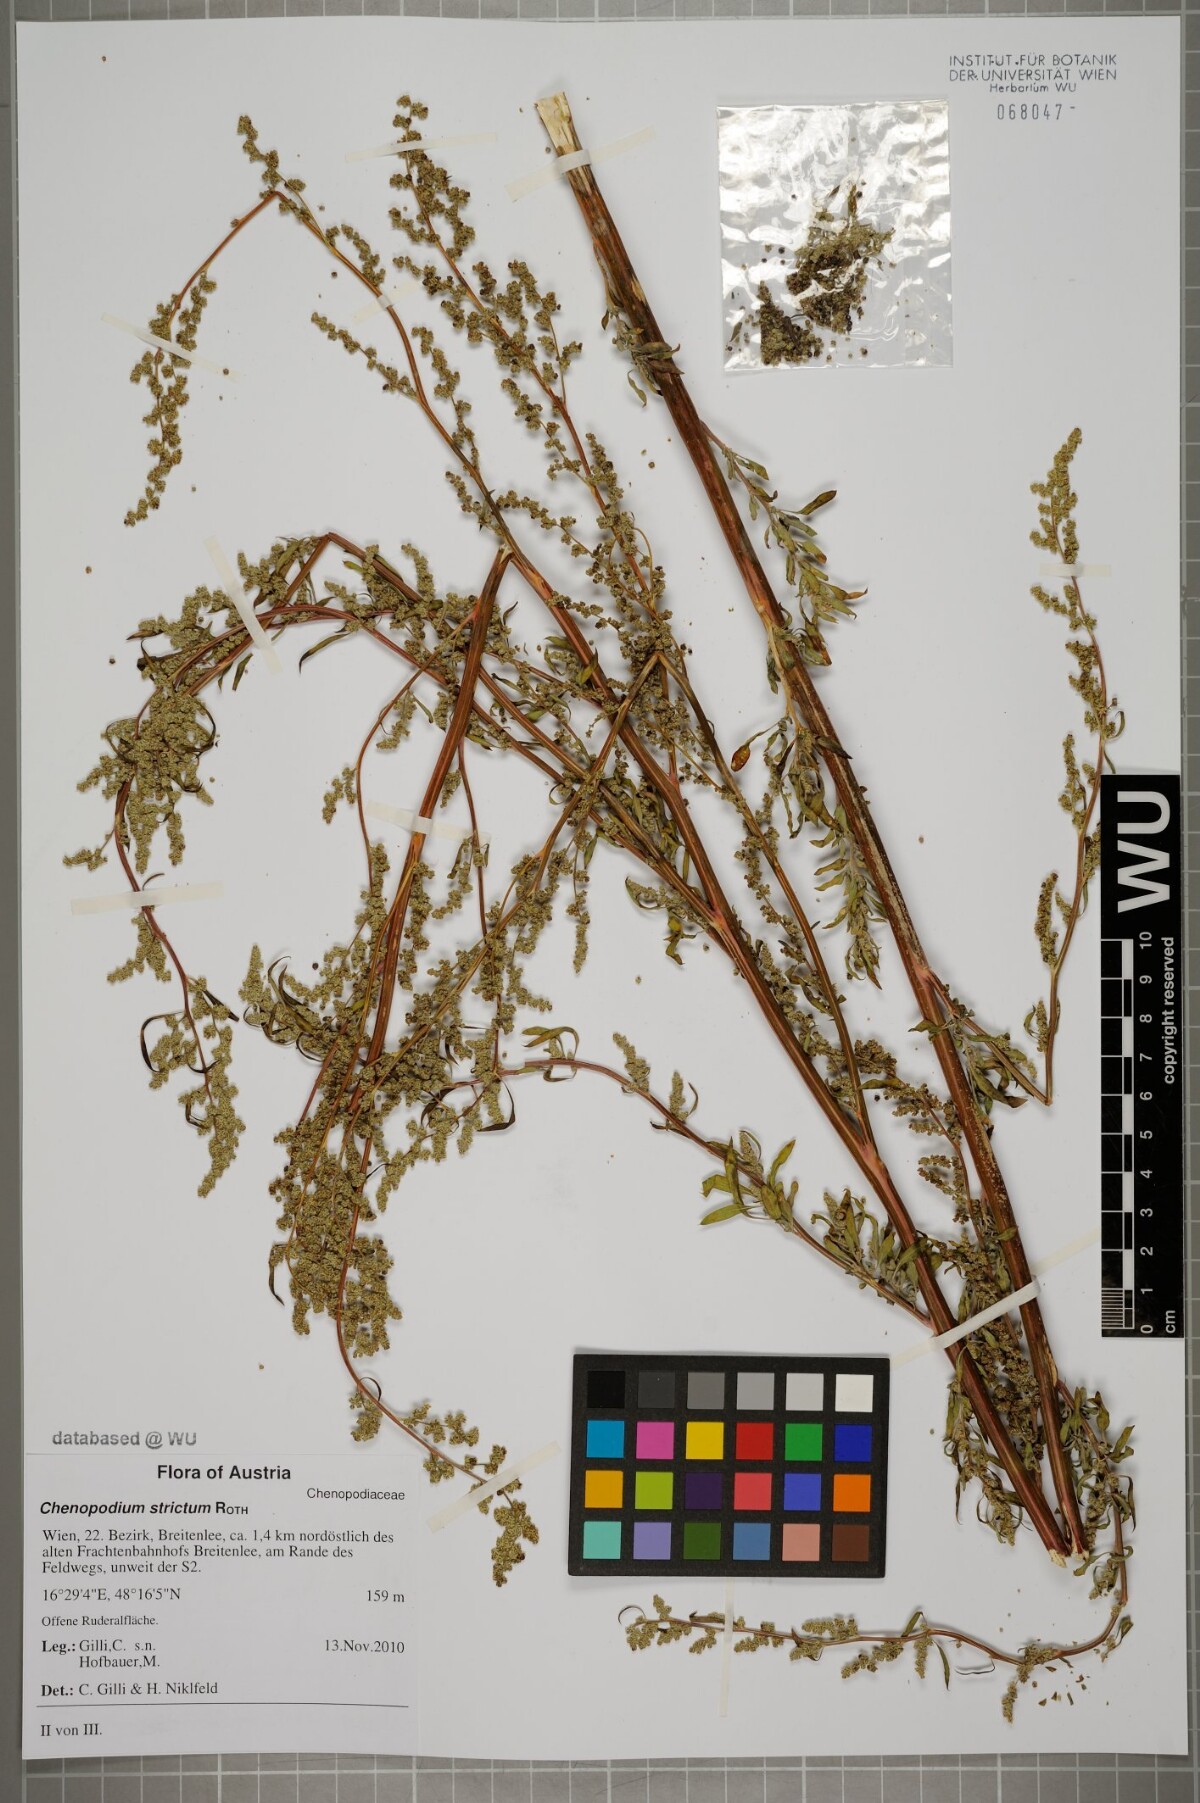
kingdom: Plantae
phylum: Tracheophyta
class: Magnoliopsida
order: Caryophyllales
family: Amaranthaceae
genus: Chenopodium
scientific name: Chenopodium album
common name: Fat-hen
